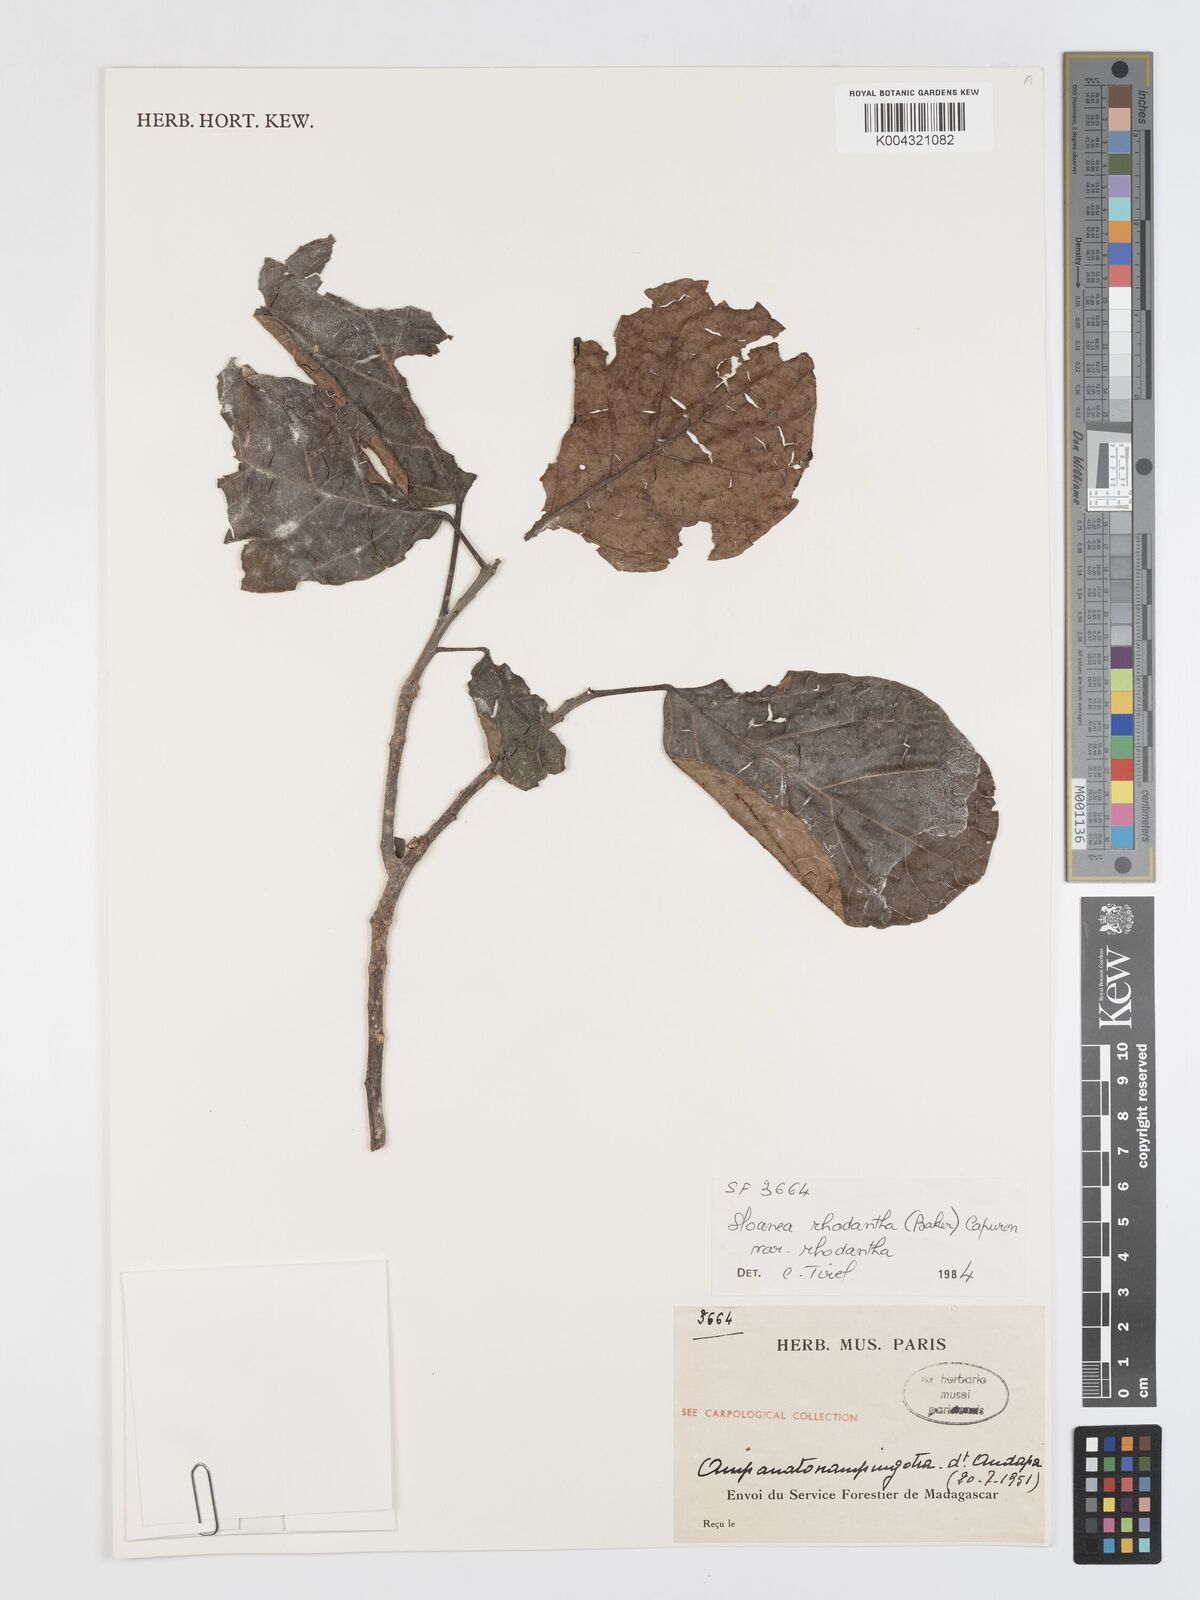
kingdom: Plantae
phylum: Tracheophyta
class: Magnoliopsida
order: Oxalidales
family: Elaeocarpaceae
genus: Sloanea
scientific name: Sloanea rhodantha
